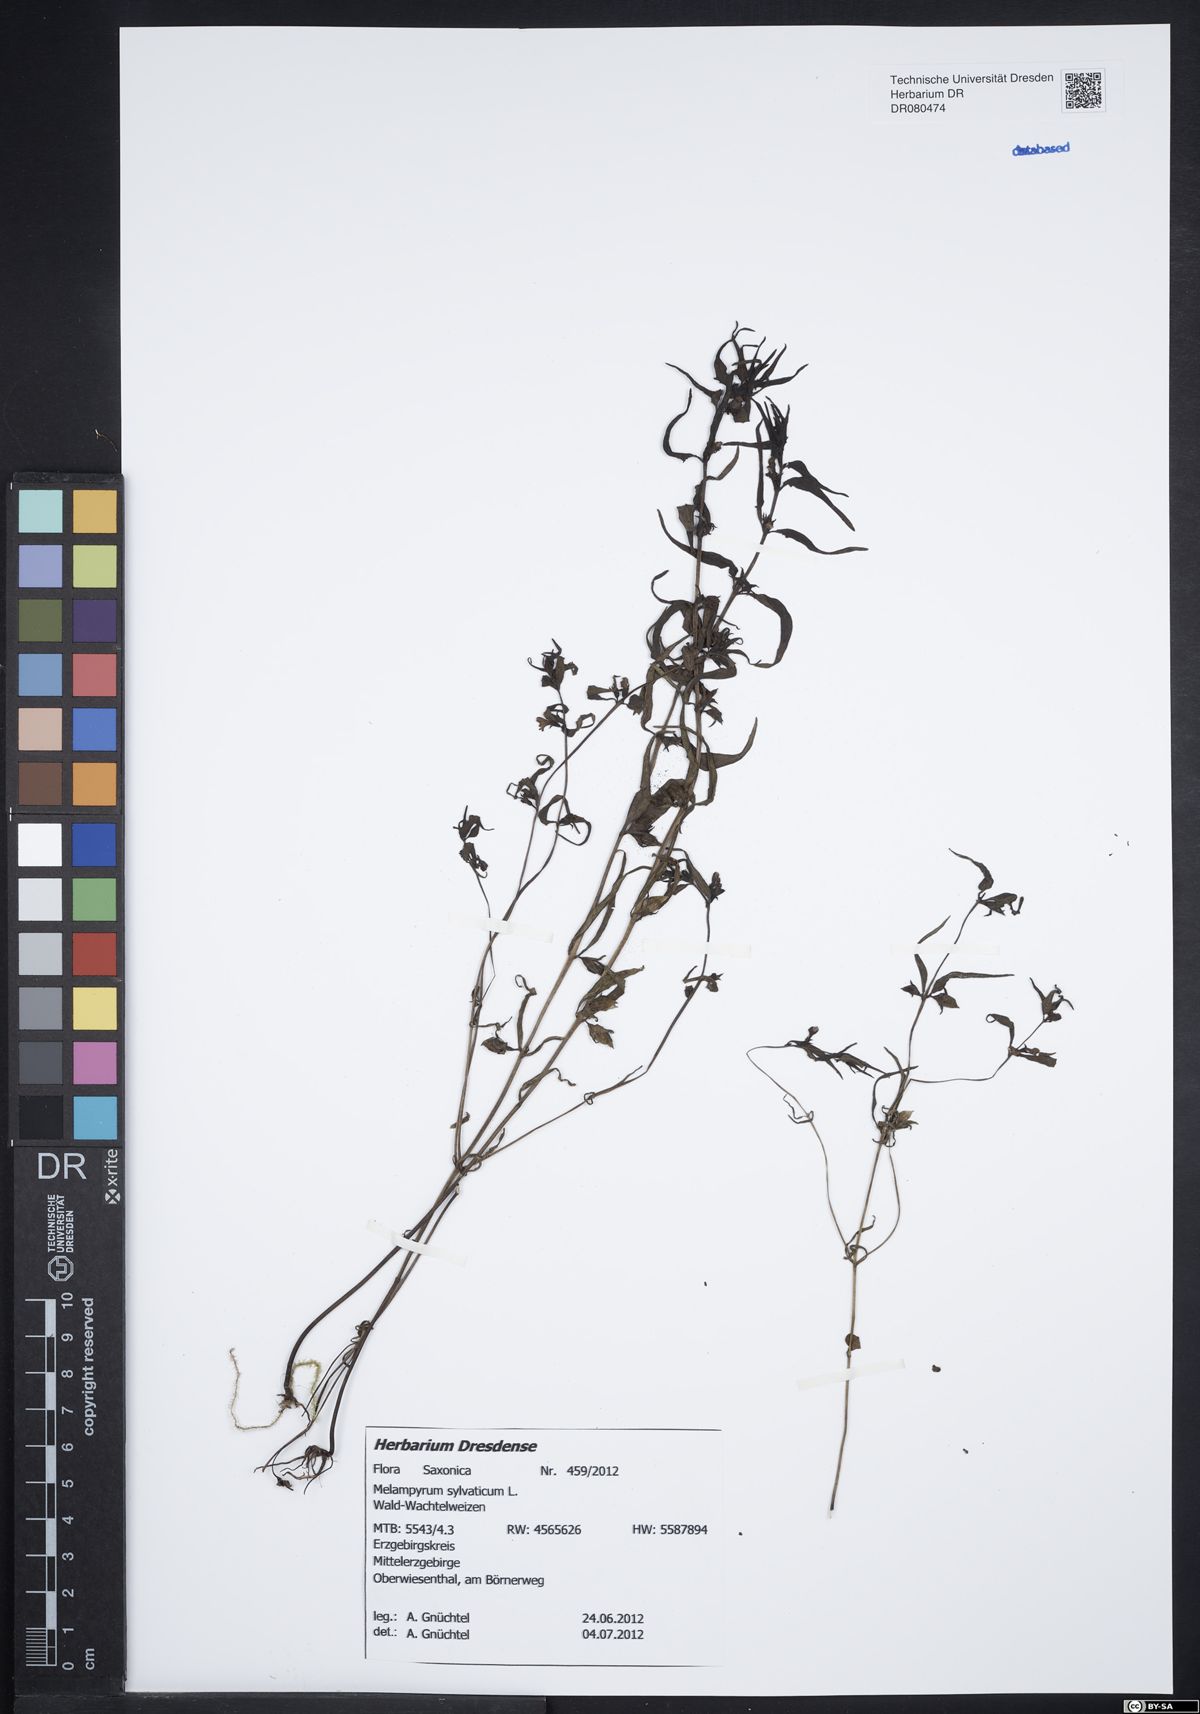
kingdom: Plantae
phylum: Tracheophyta
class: Magnoliopsida
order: Lamiales
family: Orobanchaceae
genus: Melampyrum
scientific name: Melampyrum sylvaticum
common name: Small cow-wheat
